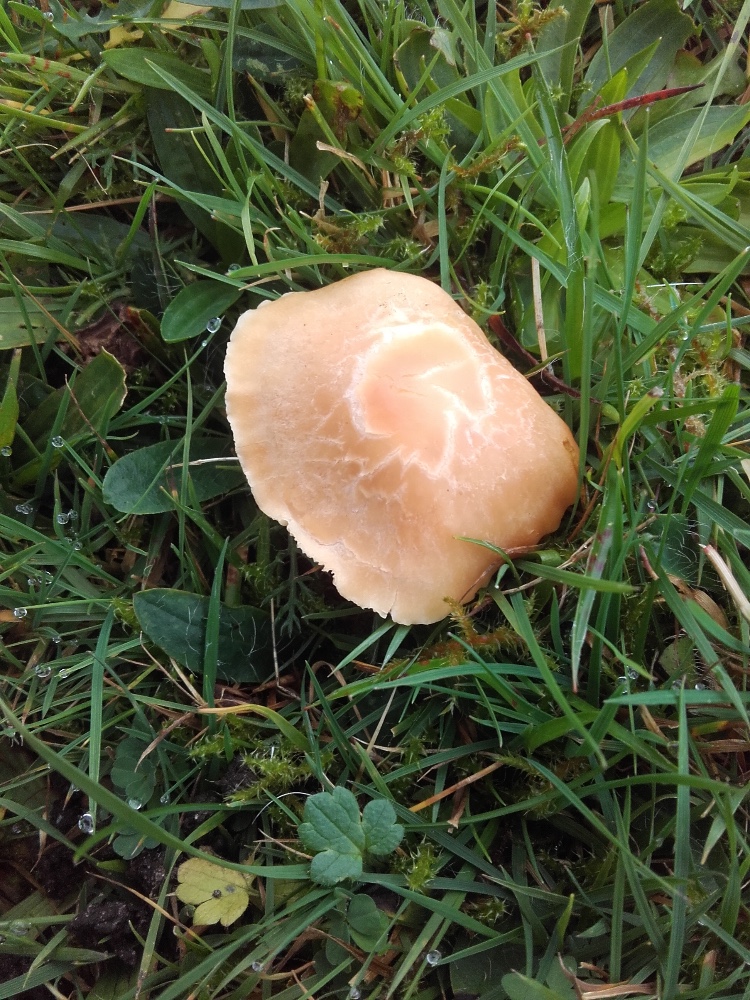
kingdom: Fungi
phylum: Basidiomycota
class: Agaricomycetes
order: Agaricales
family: Hygrophoraceae
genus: Cuphophyllus
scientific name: Cuphophyllus pratensis
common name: eng-vokshat
